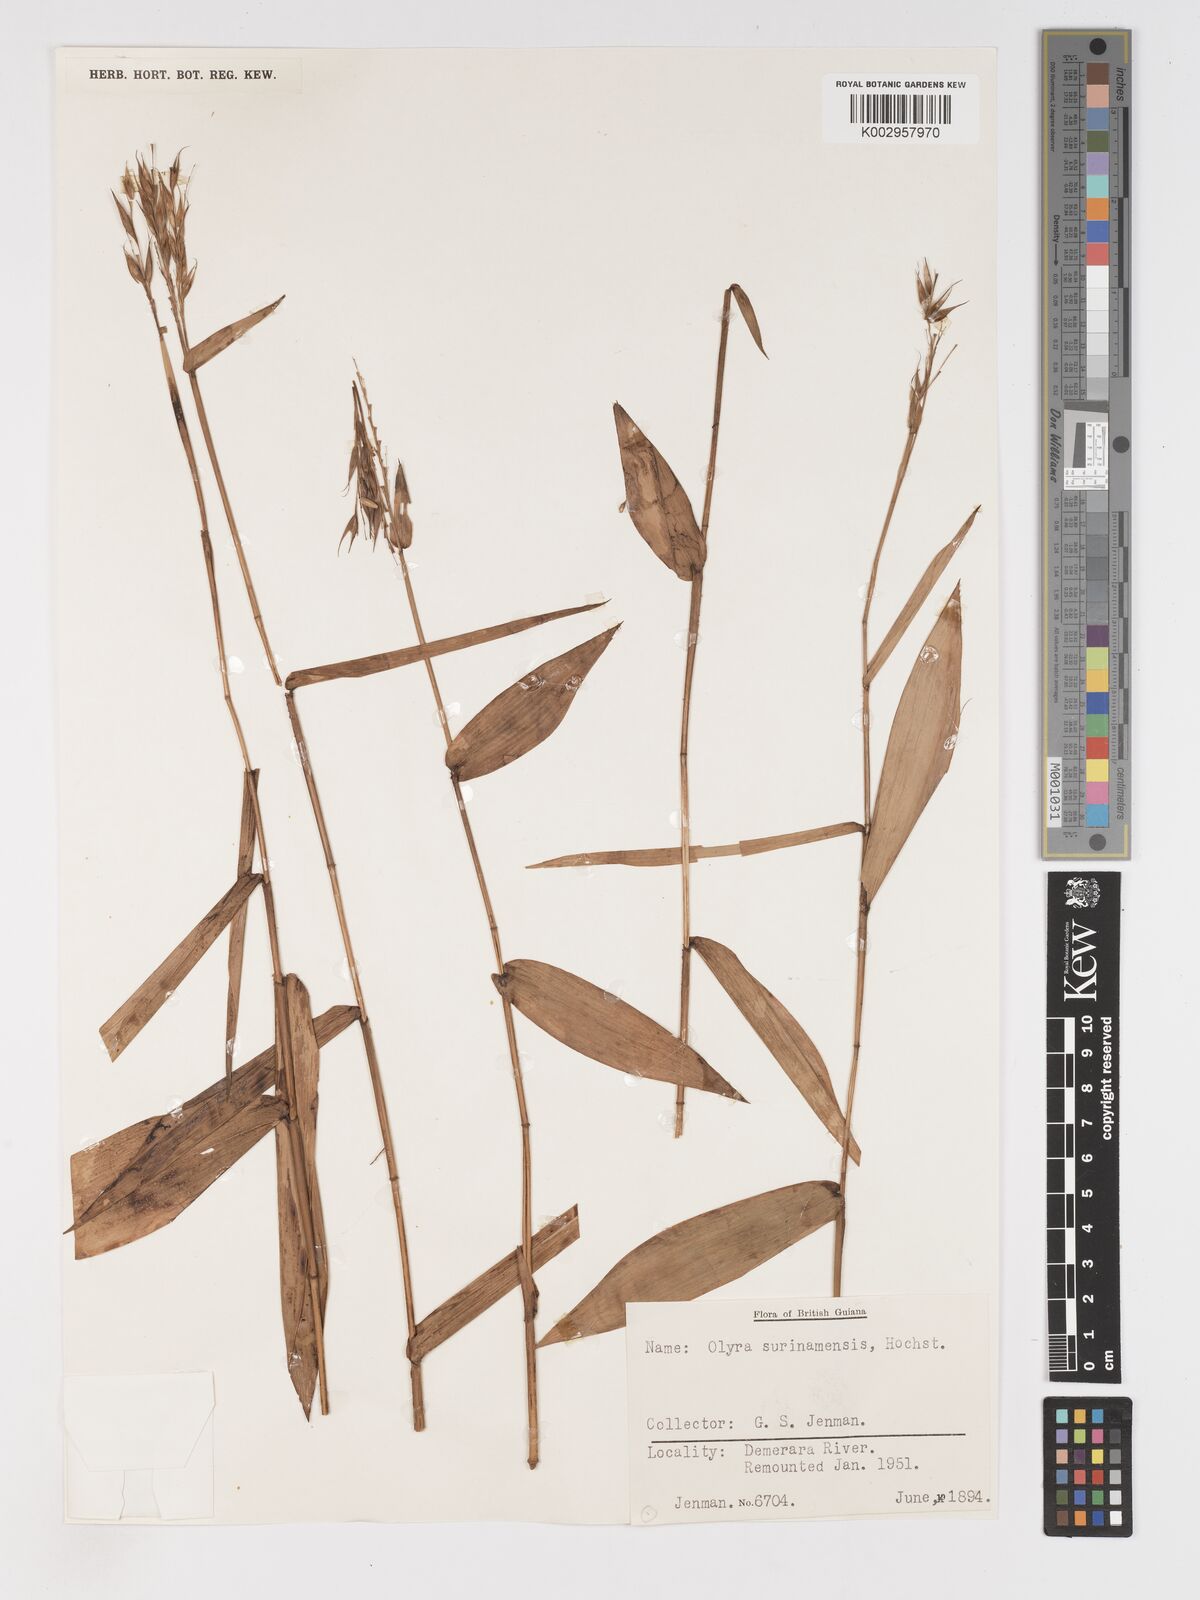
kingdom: Plantae
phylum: Tracheophyta
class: Liliopsida
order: Poales
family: Poaceae
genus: Olyra
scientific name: Olyra longifolia
